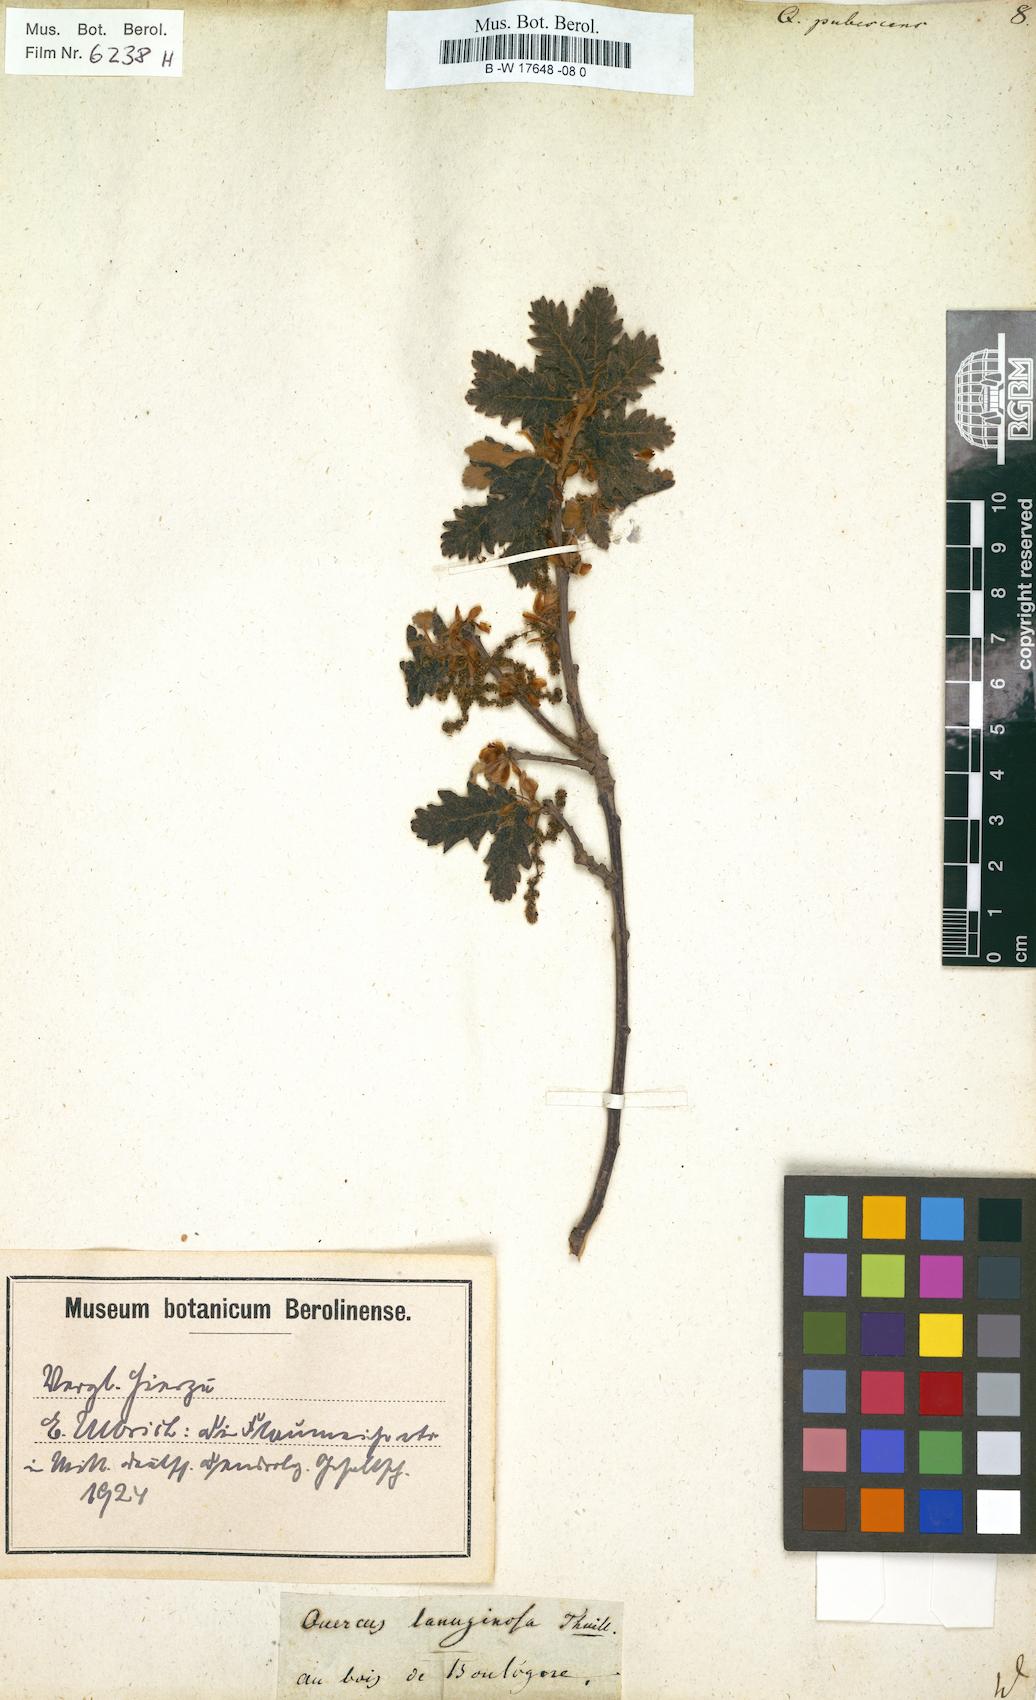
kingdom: Plantae
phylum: Tracheophyta
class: Magnoliopsida
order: Fagales
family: Fagaceae
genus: Quercus
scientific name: Quercus pubescens
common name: Downy oak
